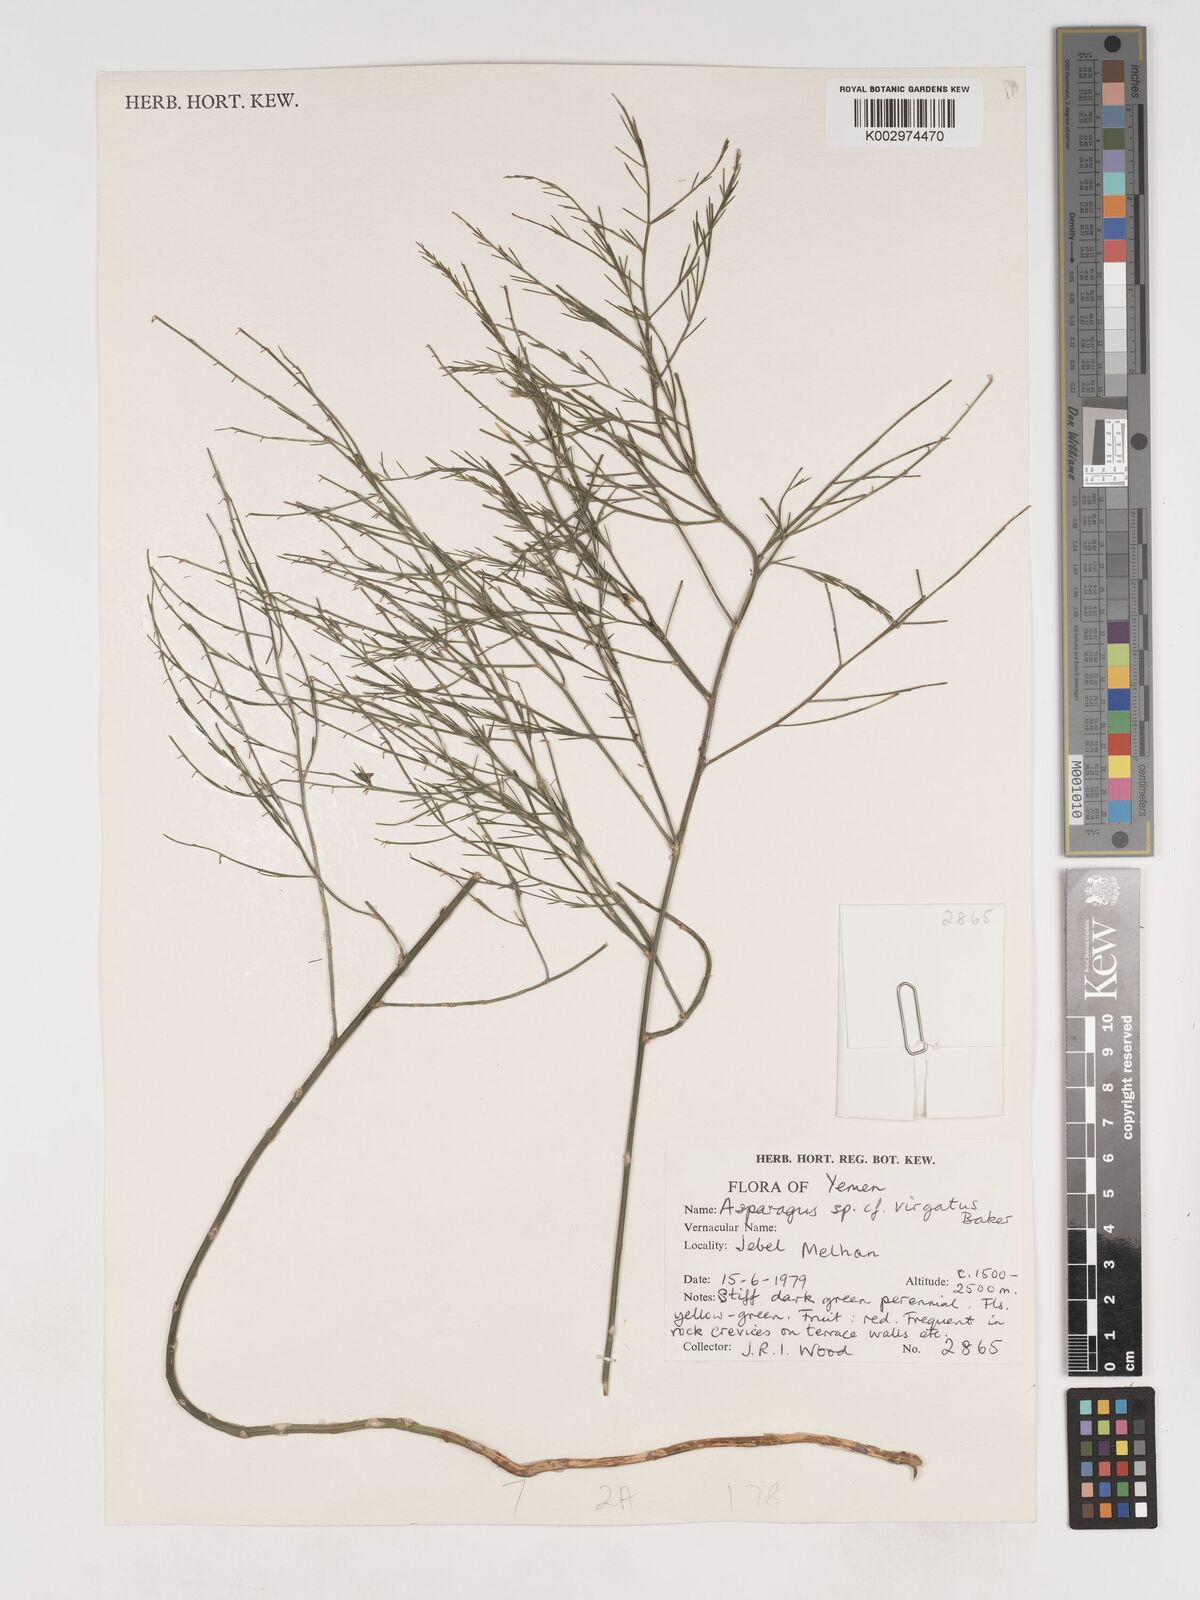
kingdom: Plantae
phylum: Tracheophyta
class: Liliopsida
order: Asparagales
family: Asparagaceae
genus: Asparagus
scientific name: Asparagus virgatus
